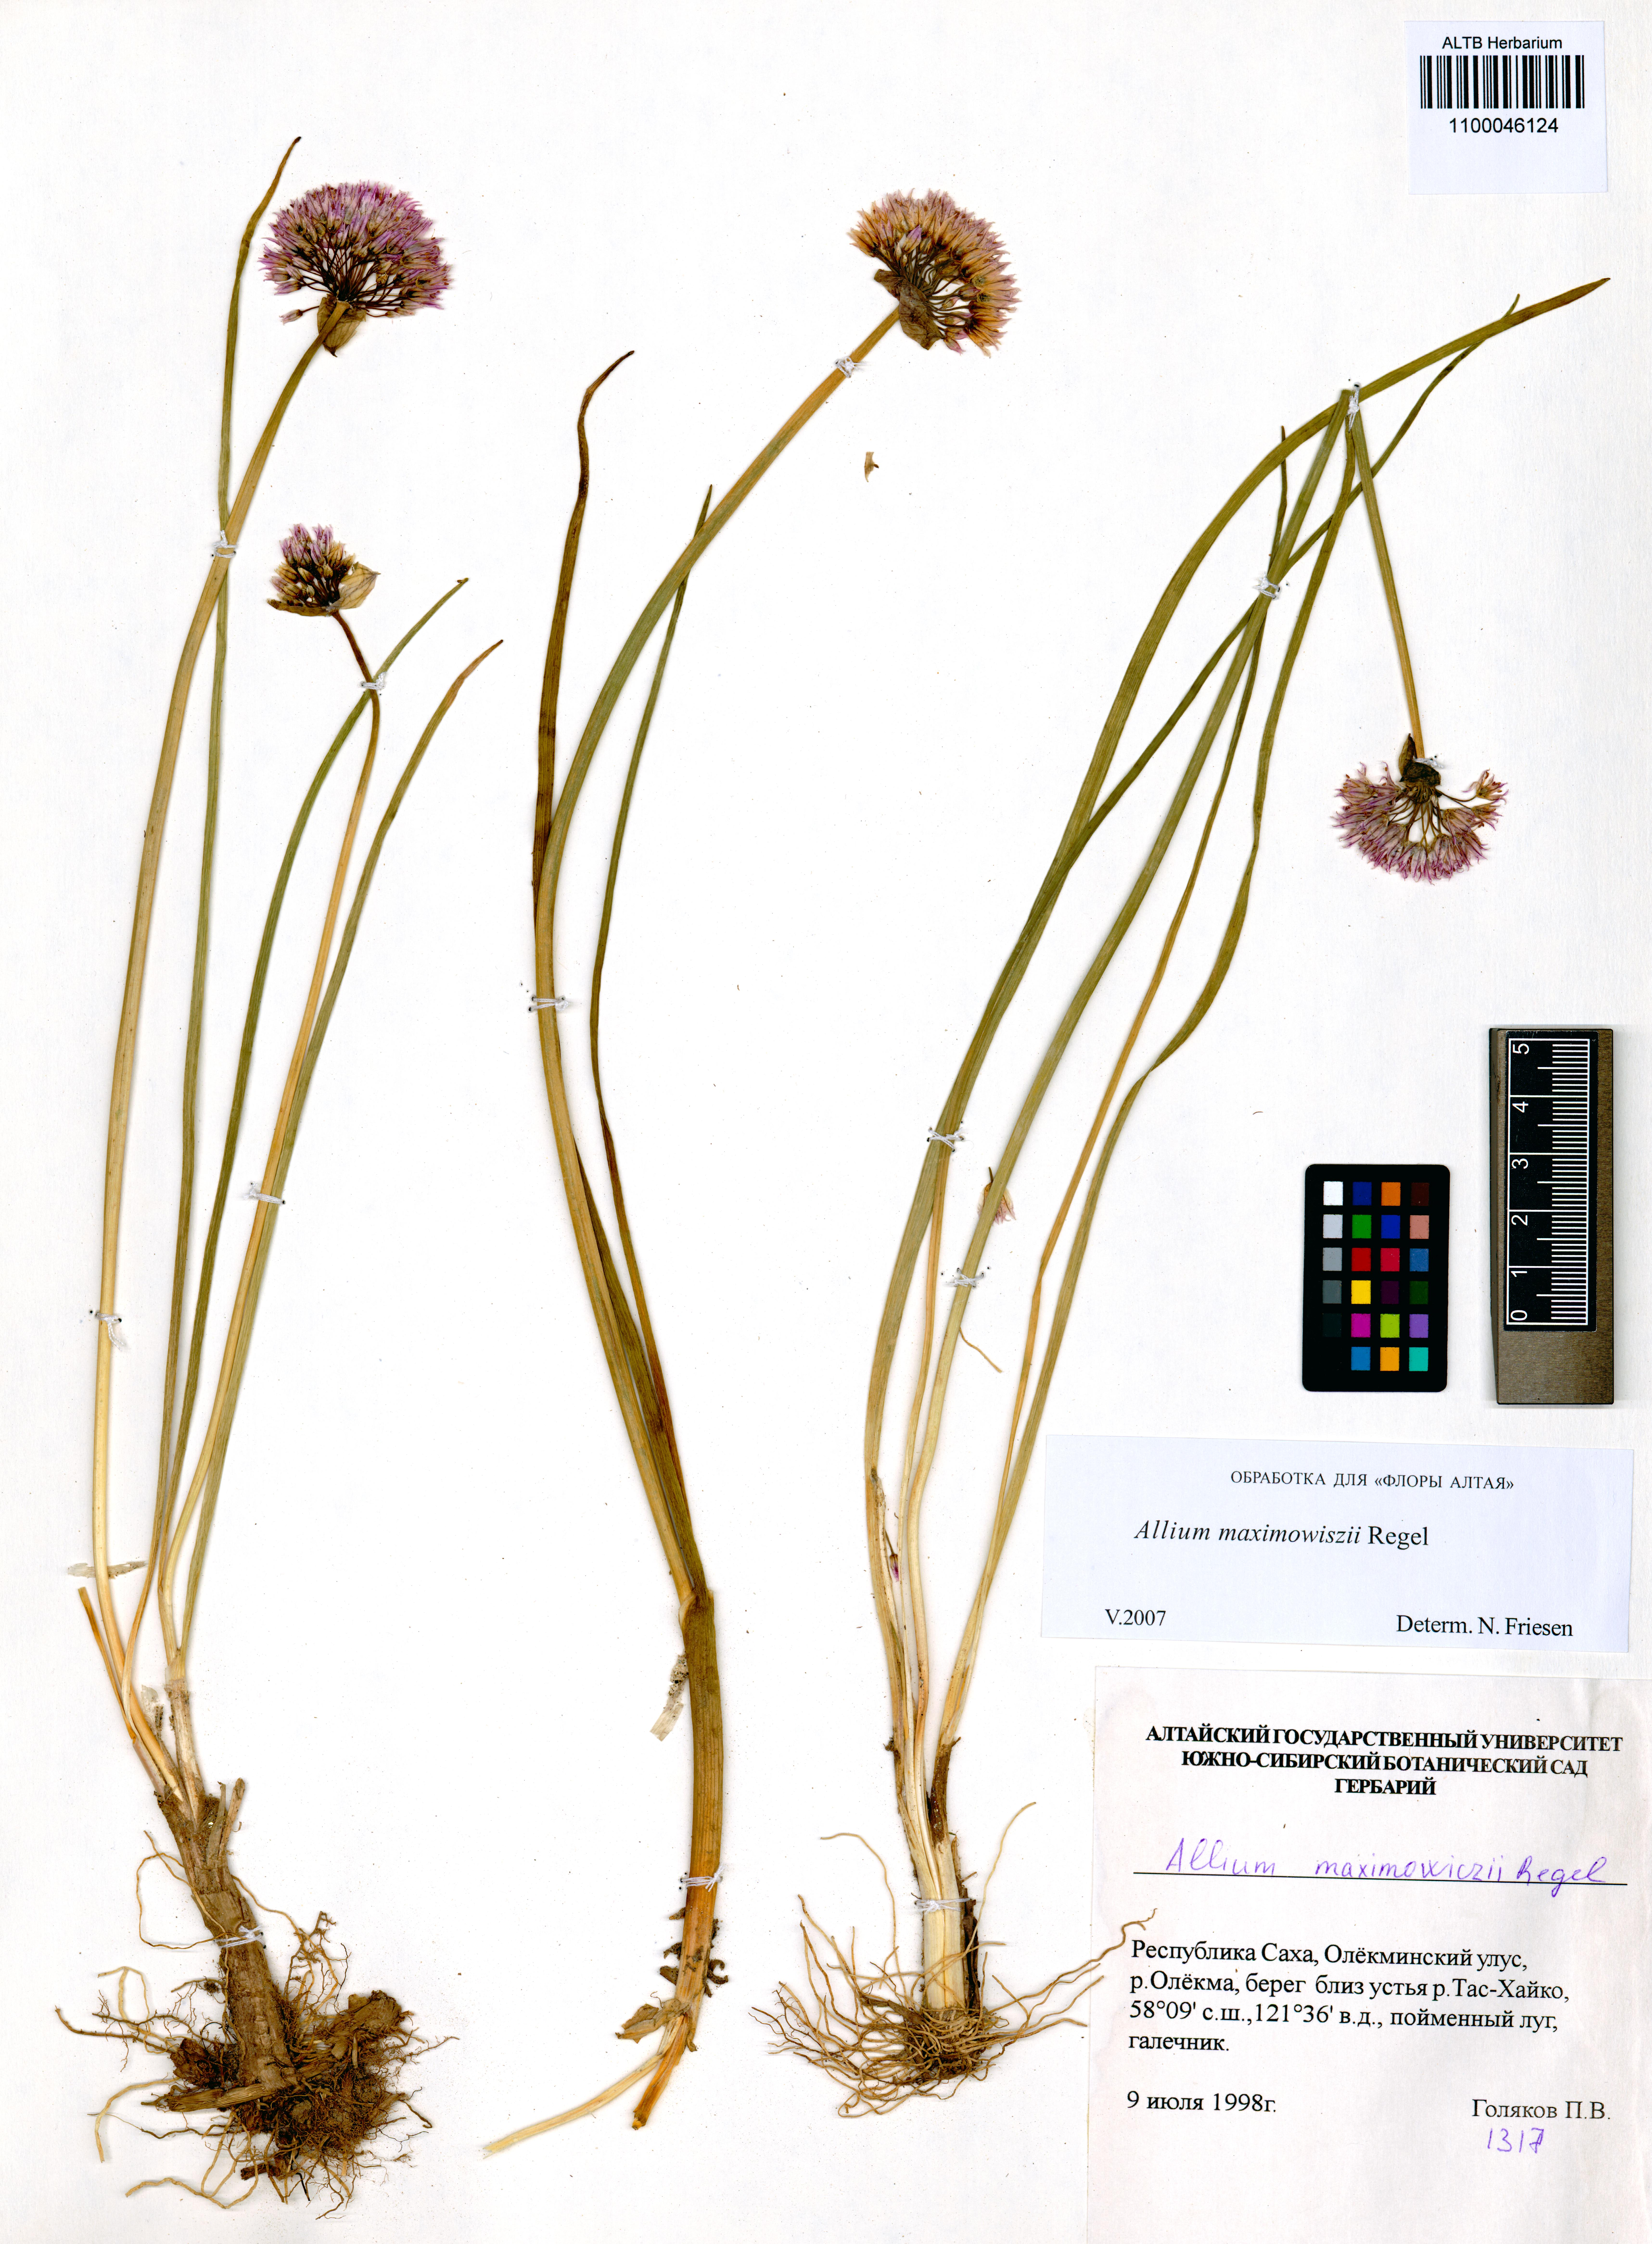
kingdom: Plantae
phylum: Tracheophyta
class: Liliopsida
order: Asparagales
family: Amaryllidaceae
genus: Allium
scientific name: Allium maximowiczii
